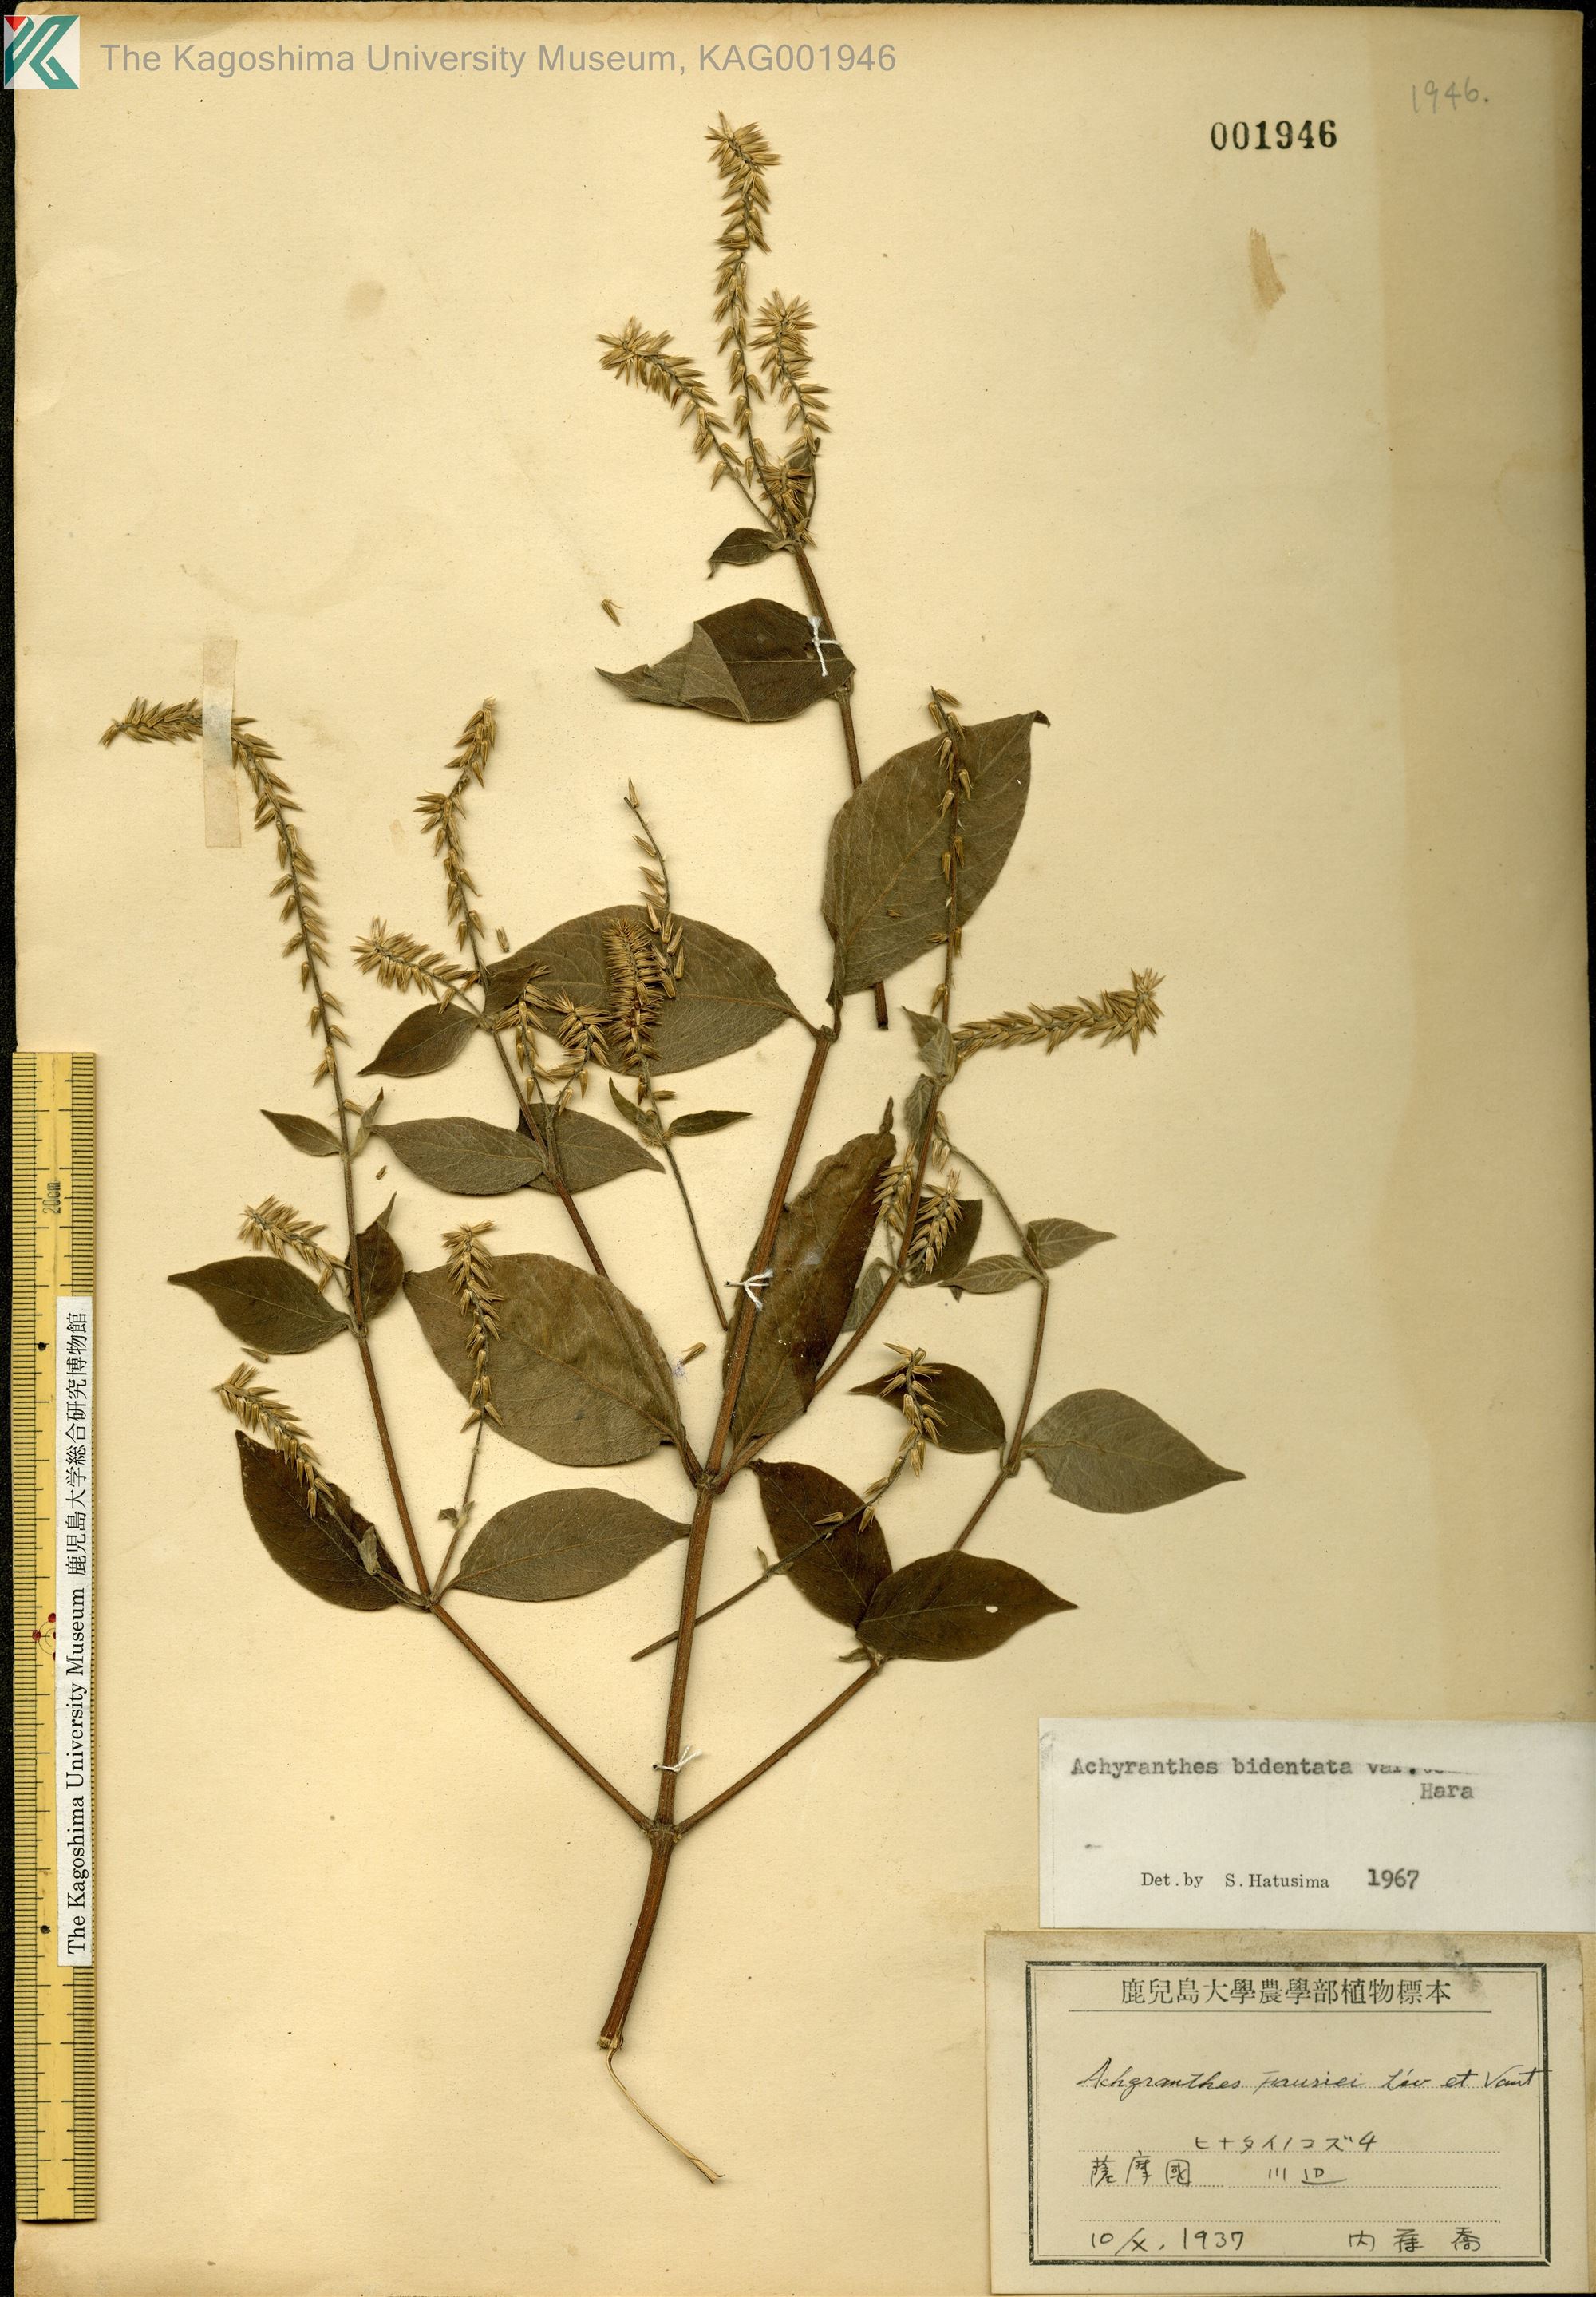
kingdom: Plantae
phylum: Tracheophyta
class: Magnoliopsida
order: Caryophyllales
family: Amaranthaceae
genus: Achyranthes
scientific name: Achyranthes bidentata
